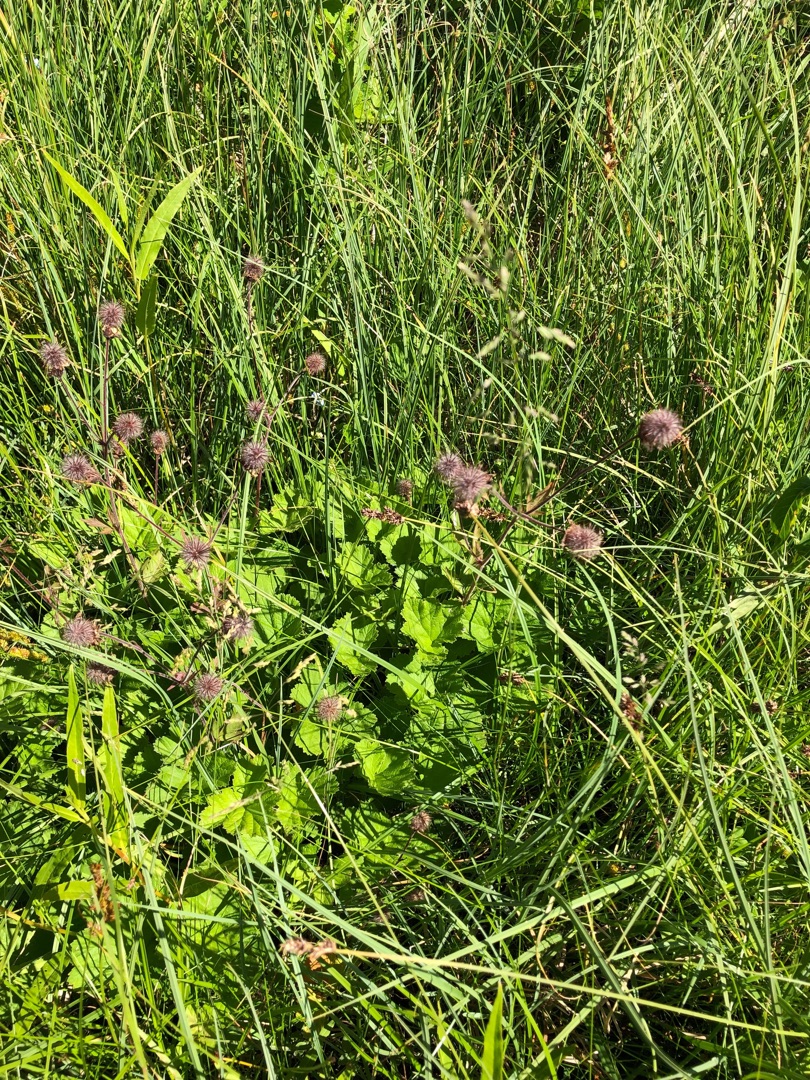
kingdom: Plantae
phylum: Tracheophyta
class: Magnoliopsida
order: Rosales
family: Rosaceae
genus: Geum
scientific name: Geum rivale
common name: Eng-nellikerod
